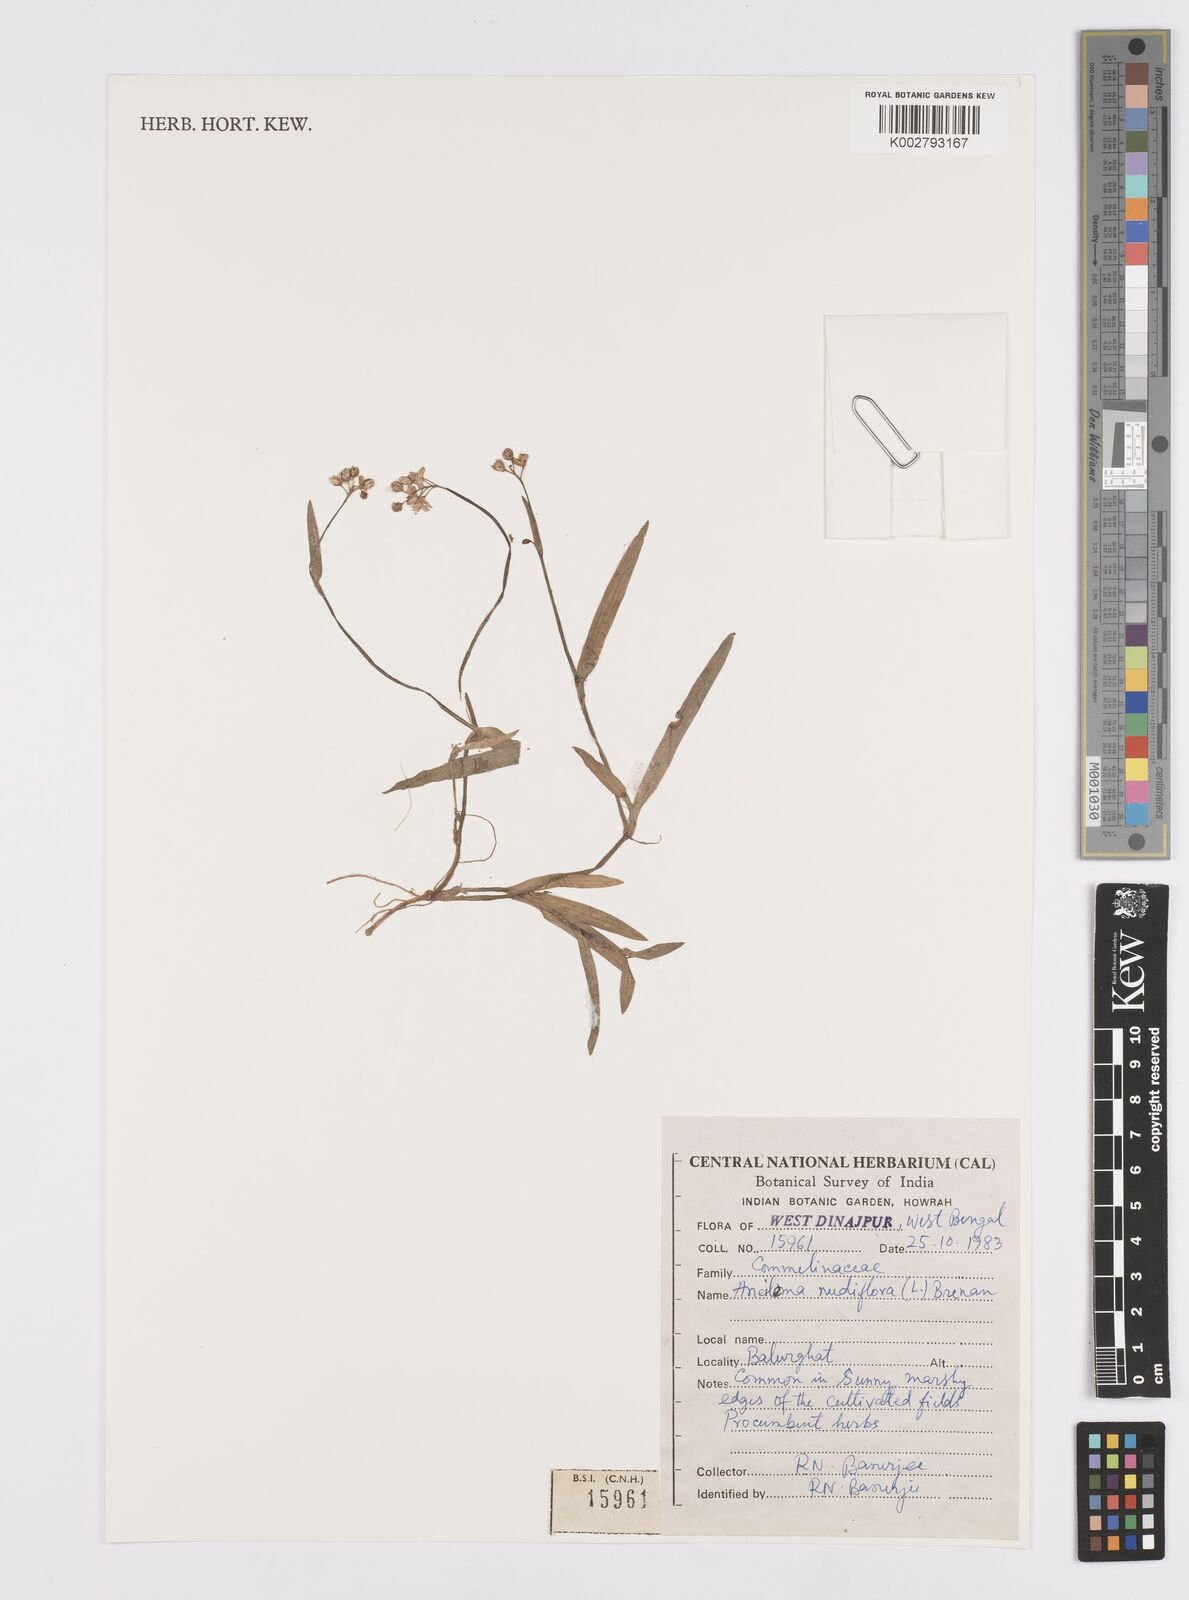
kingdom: Plantae
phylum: Tracheophyta
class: Liliopsida
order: Commelinales
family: Commelinaceae
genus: Murdannia
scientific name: Murdannia
